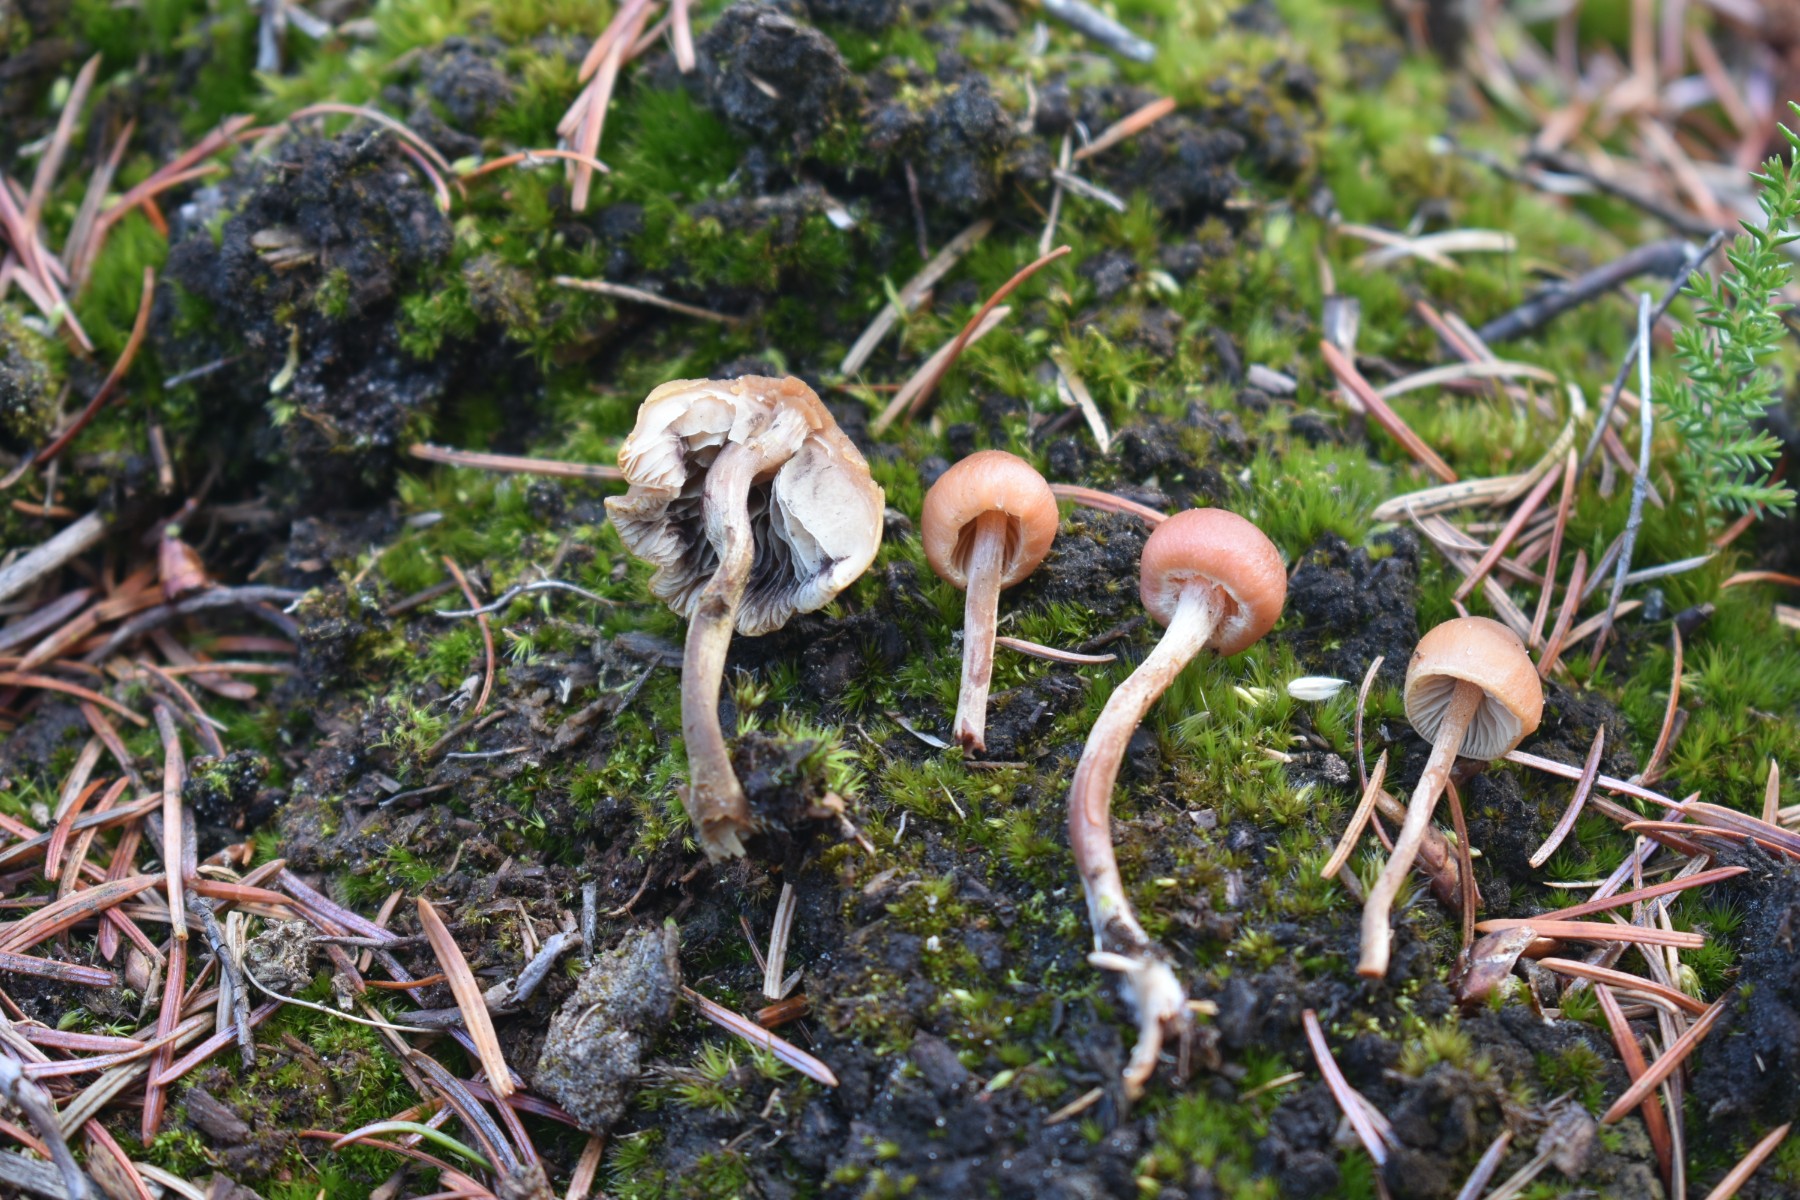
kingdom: Fungi
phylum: Basidiomycota
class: Agaricomycetes
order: Agaricales
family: Strophariaceae
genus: Bogbodia
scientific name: Bogbodia uda
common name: tørve-svovlhat
